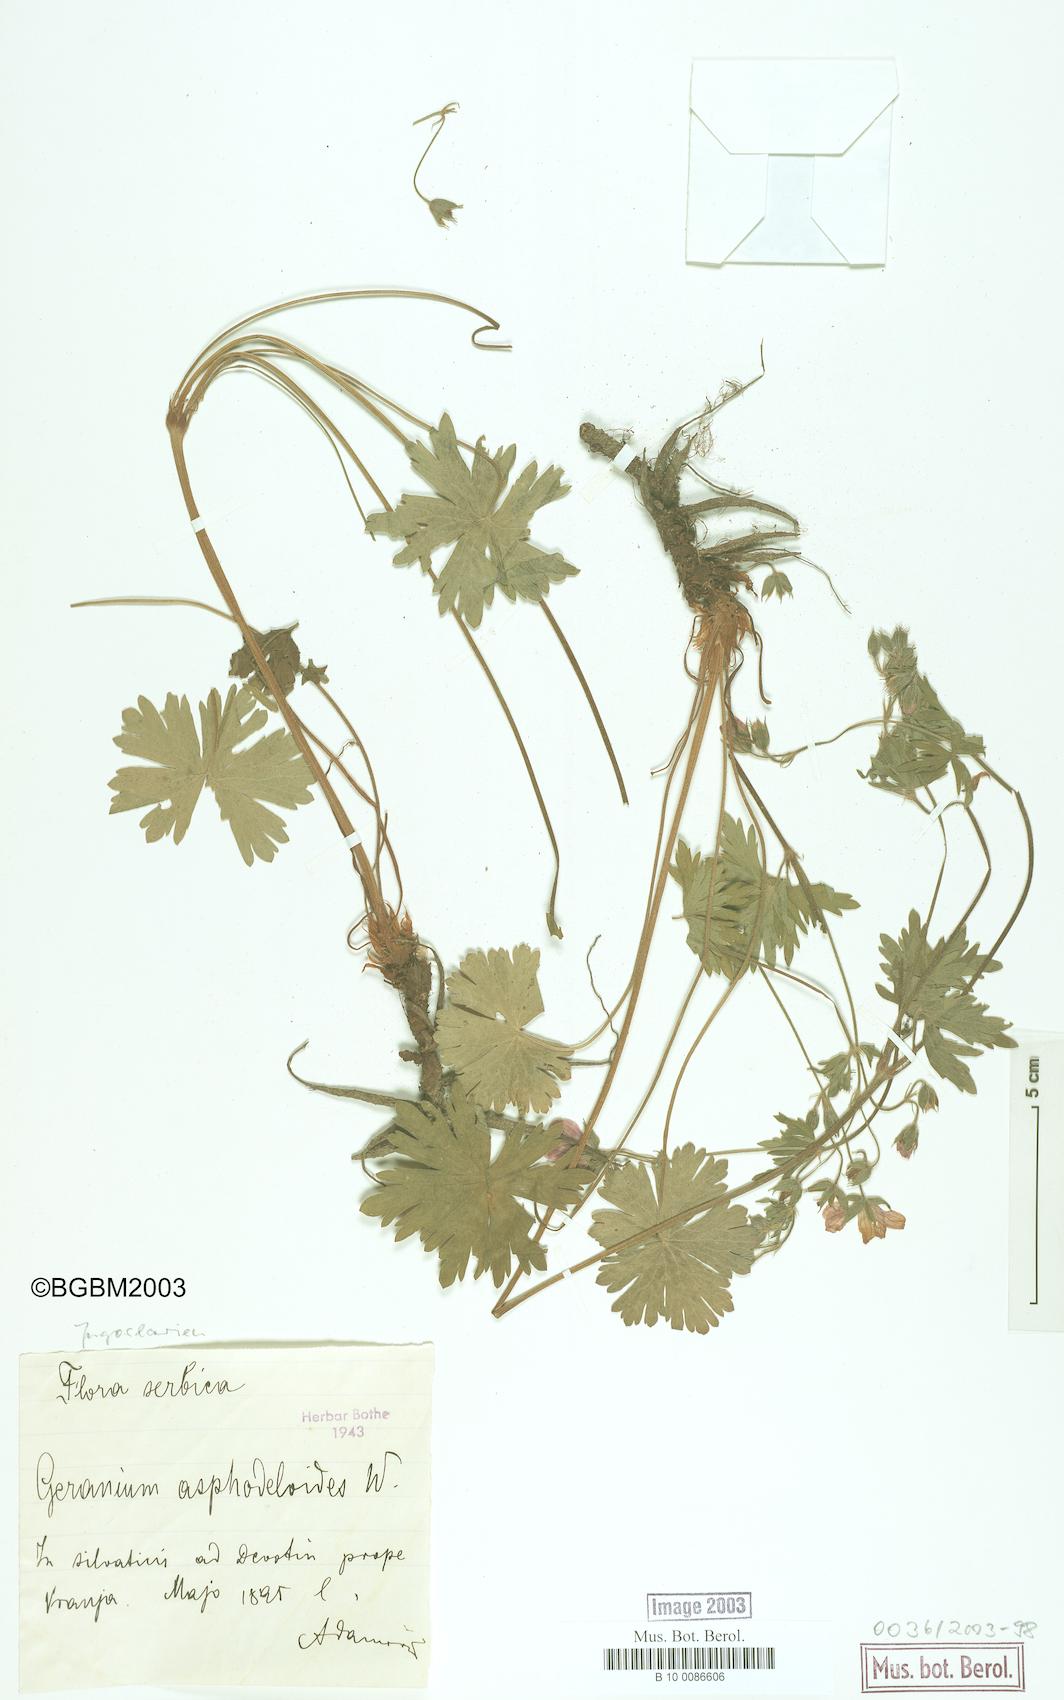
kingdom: Plantae
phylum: Tracheophyta
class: Magnoliopsida
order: Geraniales
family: Geraniaceae
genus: Geranium
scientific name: Geranium asphodeloides
